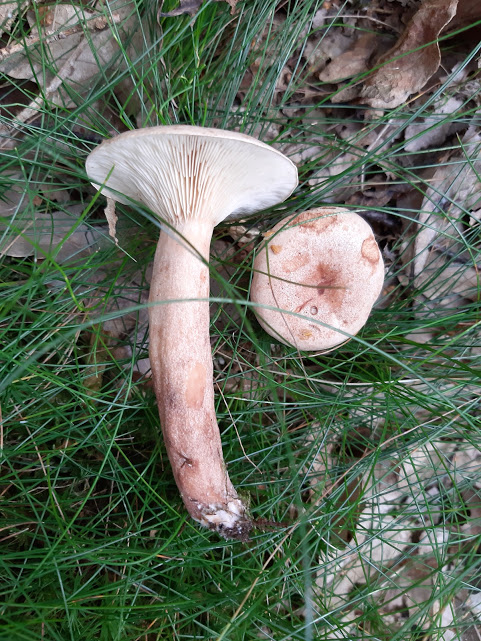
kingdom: Fungi
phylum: Basidiomycota
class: Agaricomycetes
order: Russulales
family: Russulaceae
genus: Lactarius
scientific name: Lactarius quietus
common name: ege-mælkehat
